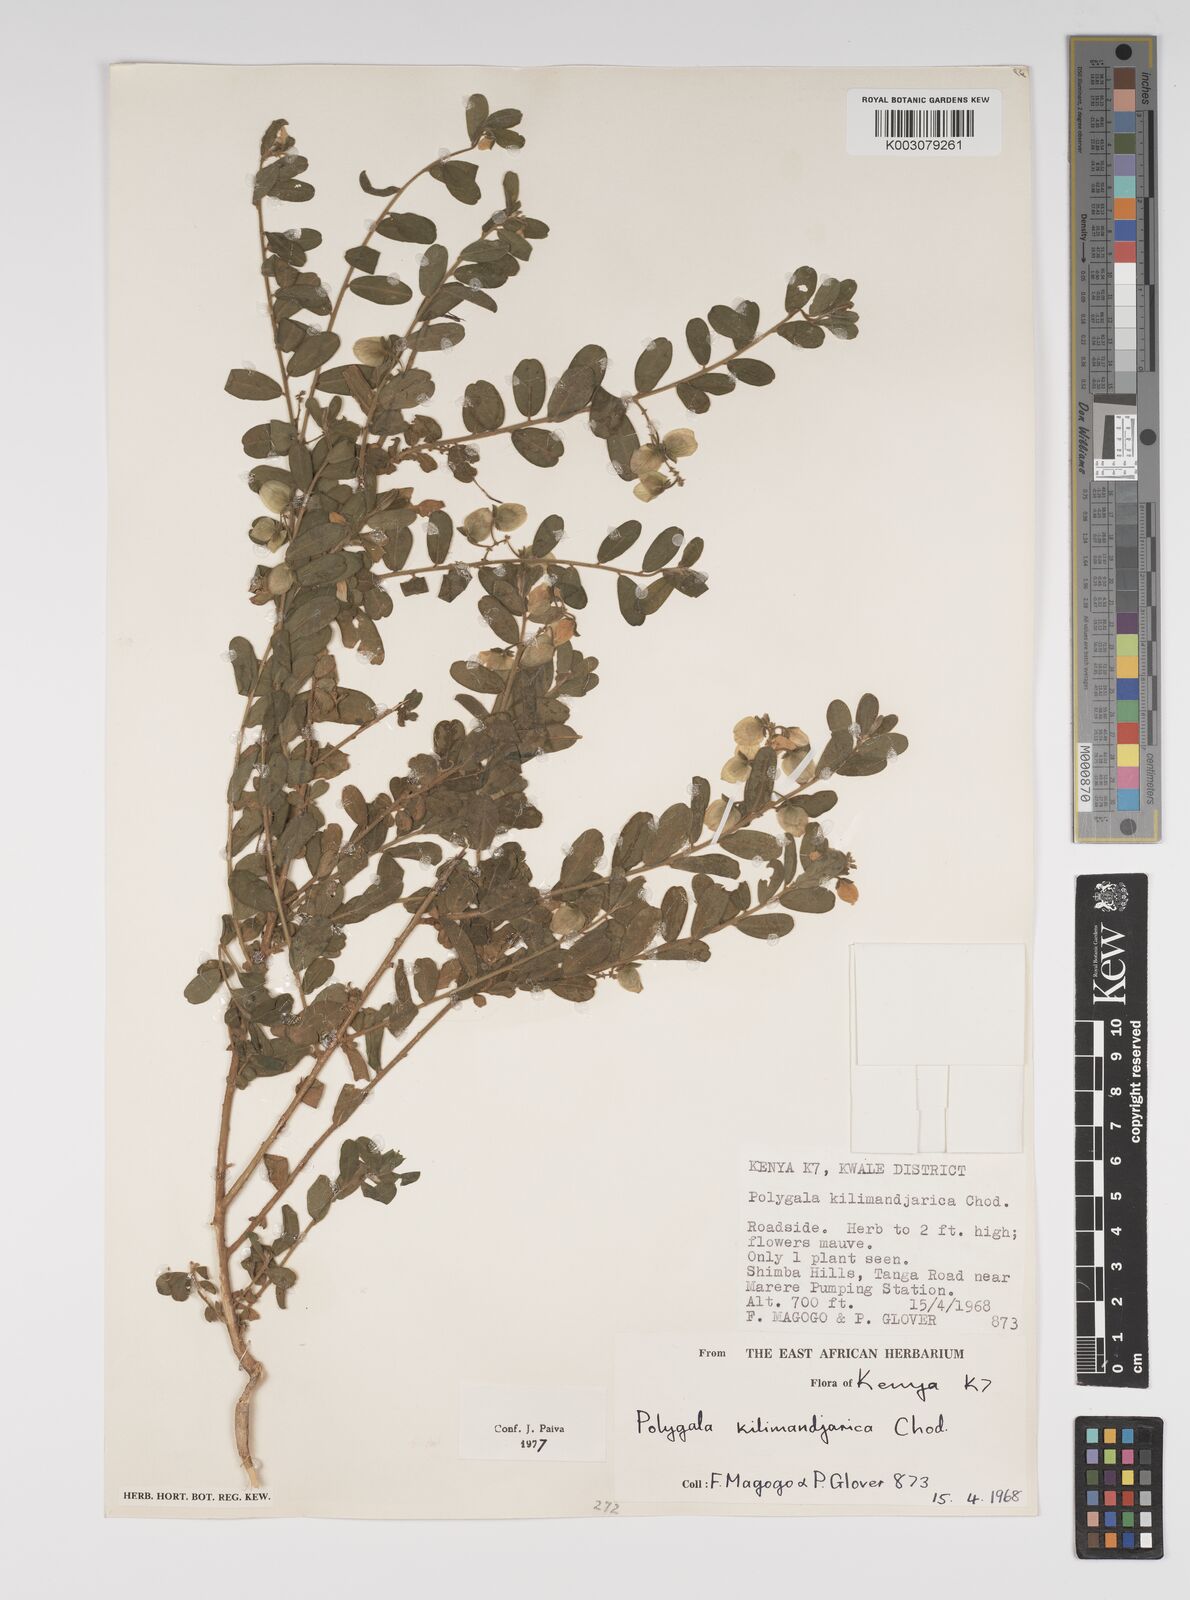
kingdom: Plantae
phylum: Tracheophyta
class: Magnoliopsida
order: Fabales
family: Polygalaceae
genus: Polygala
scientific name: Polygala kilimandjarica
